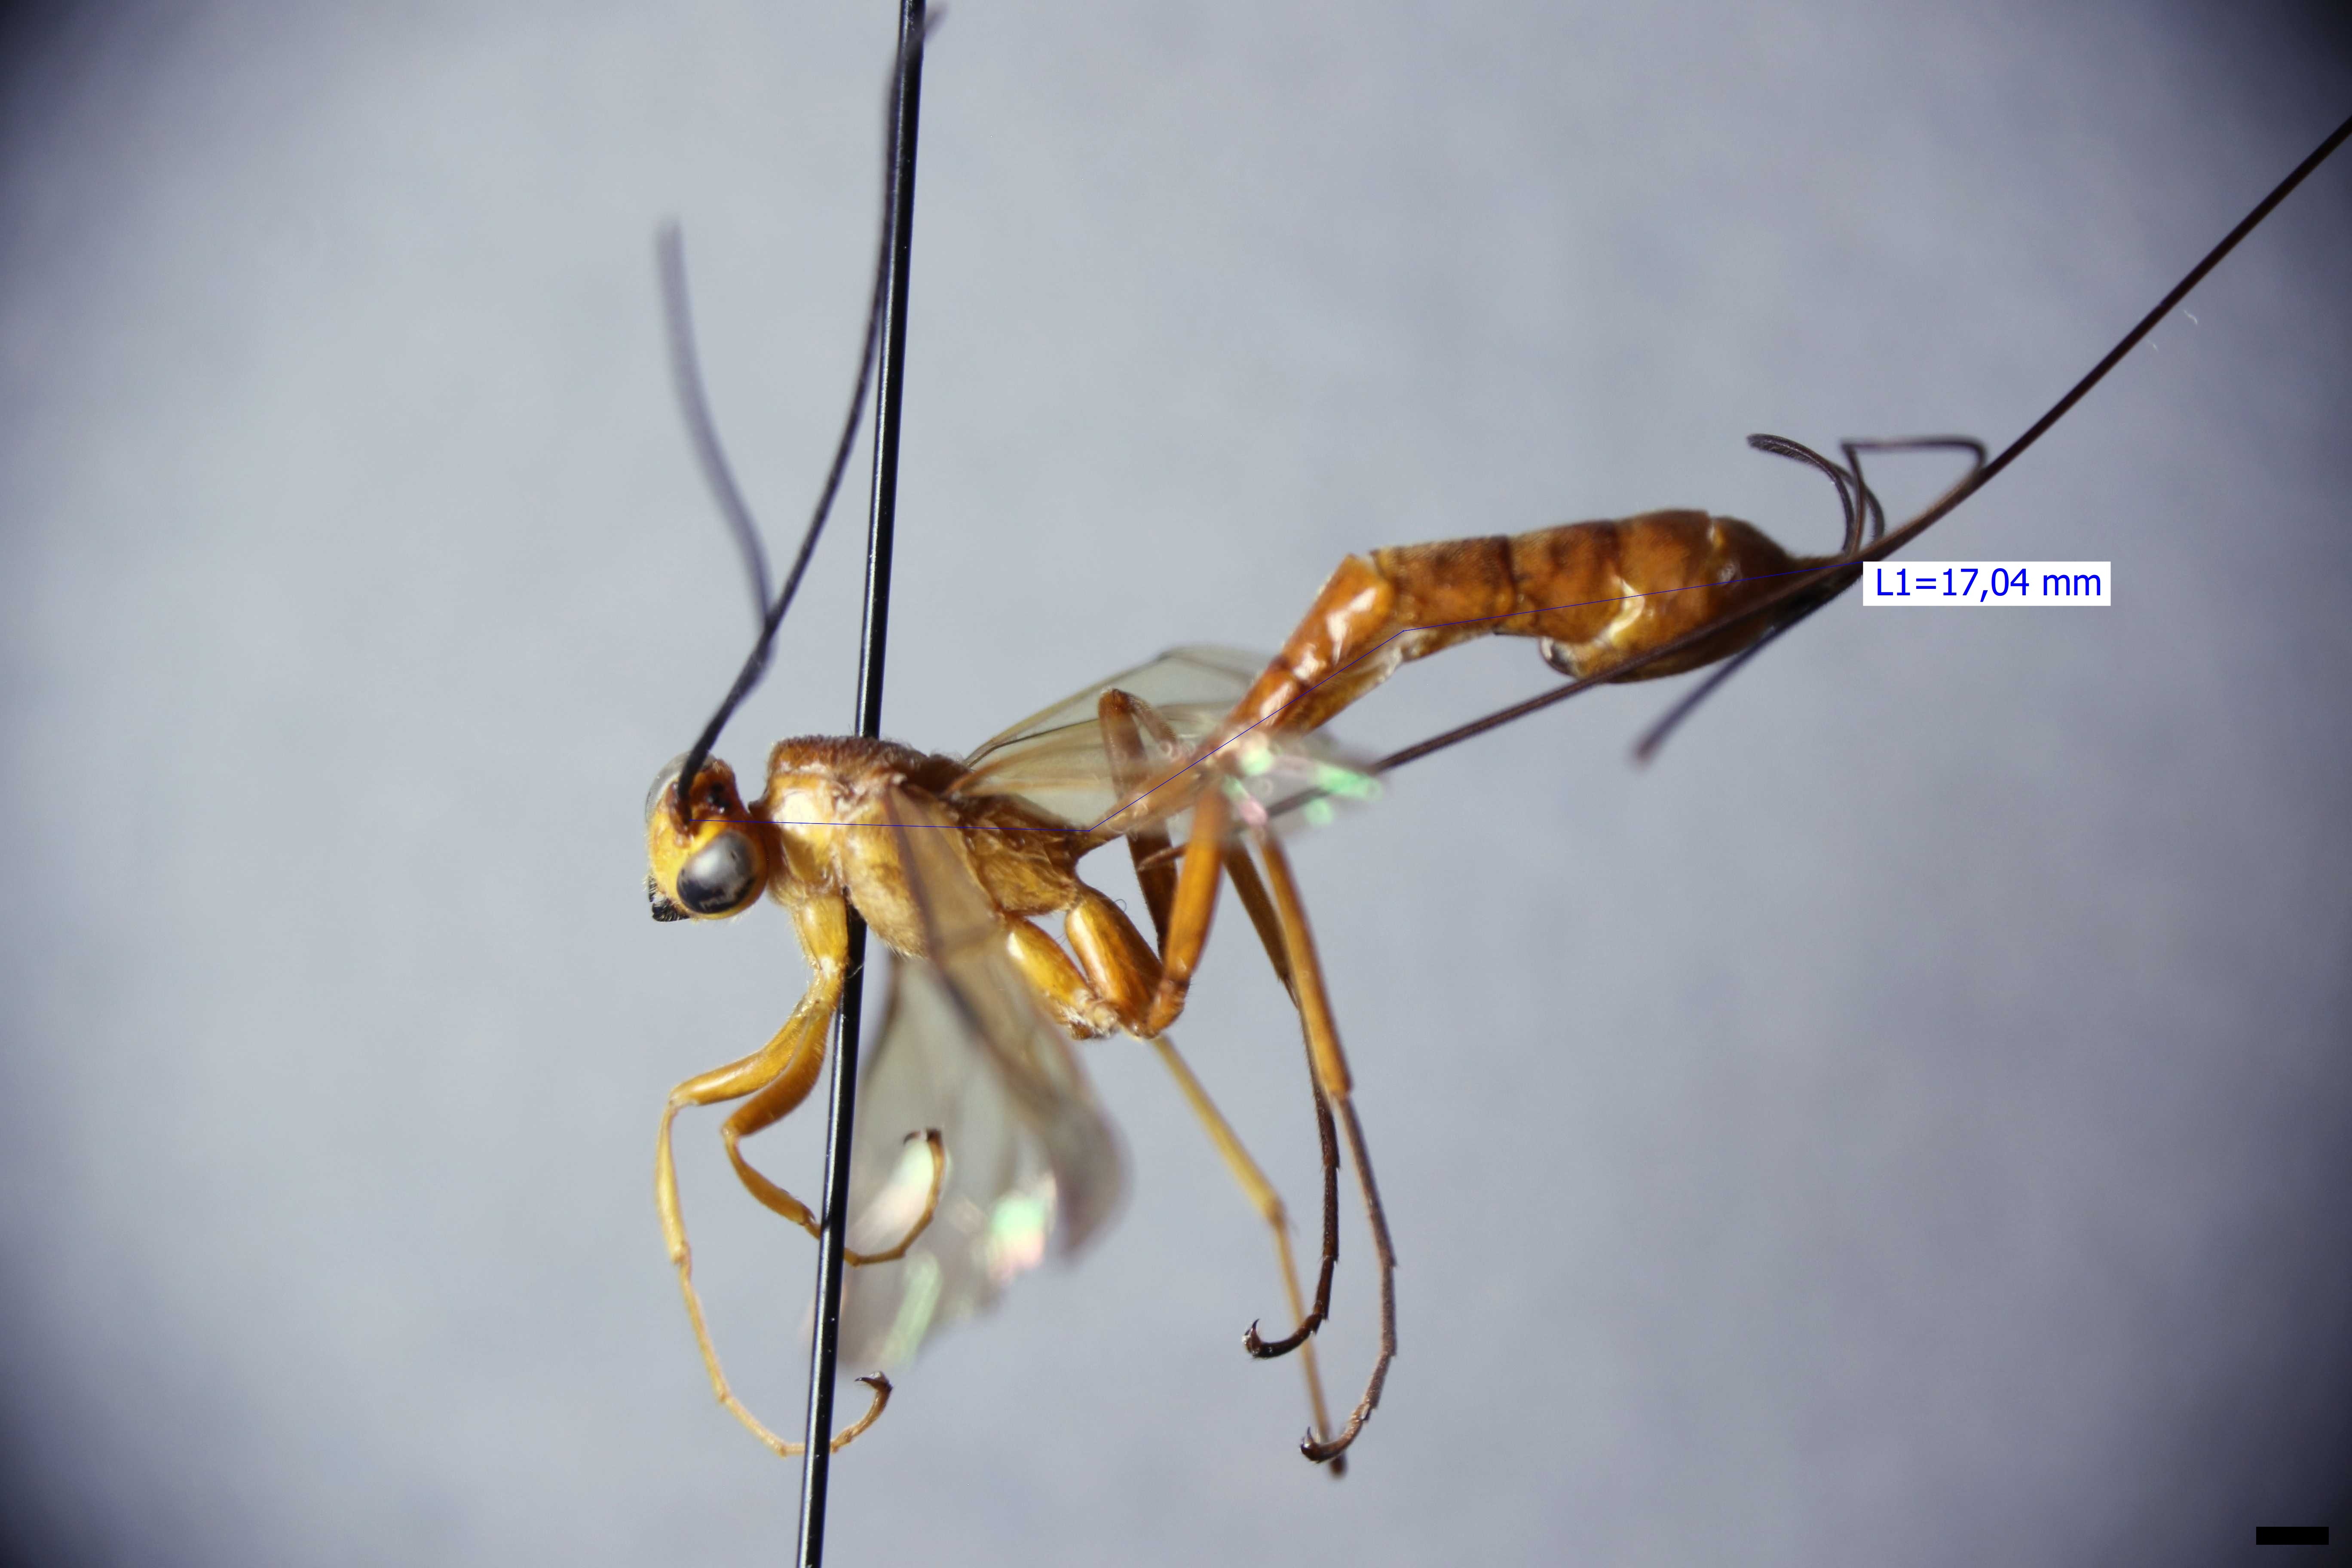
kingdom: Animalia
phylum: Arthropoda
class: Insecta
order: Hymenoptera
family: Ichneumonidae
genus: Epirhyssa
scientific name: Epirhyssa ghesquierei
